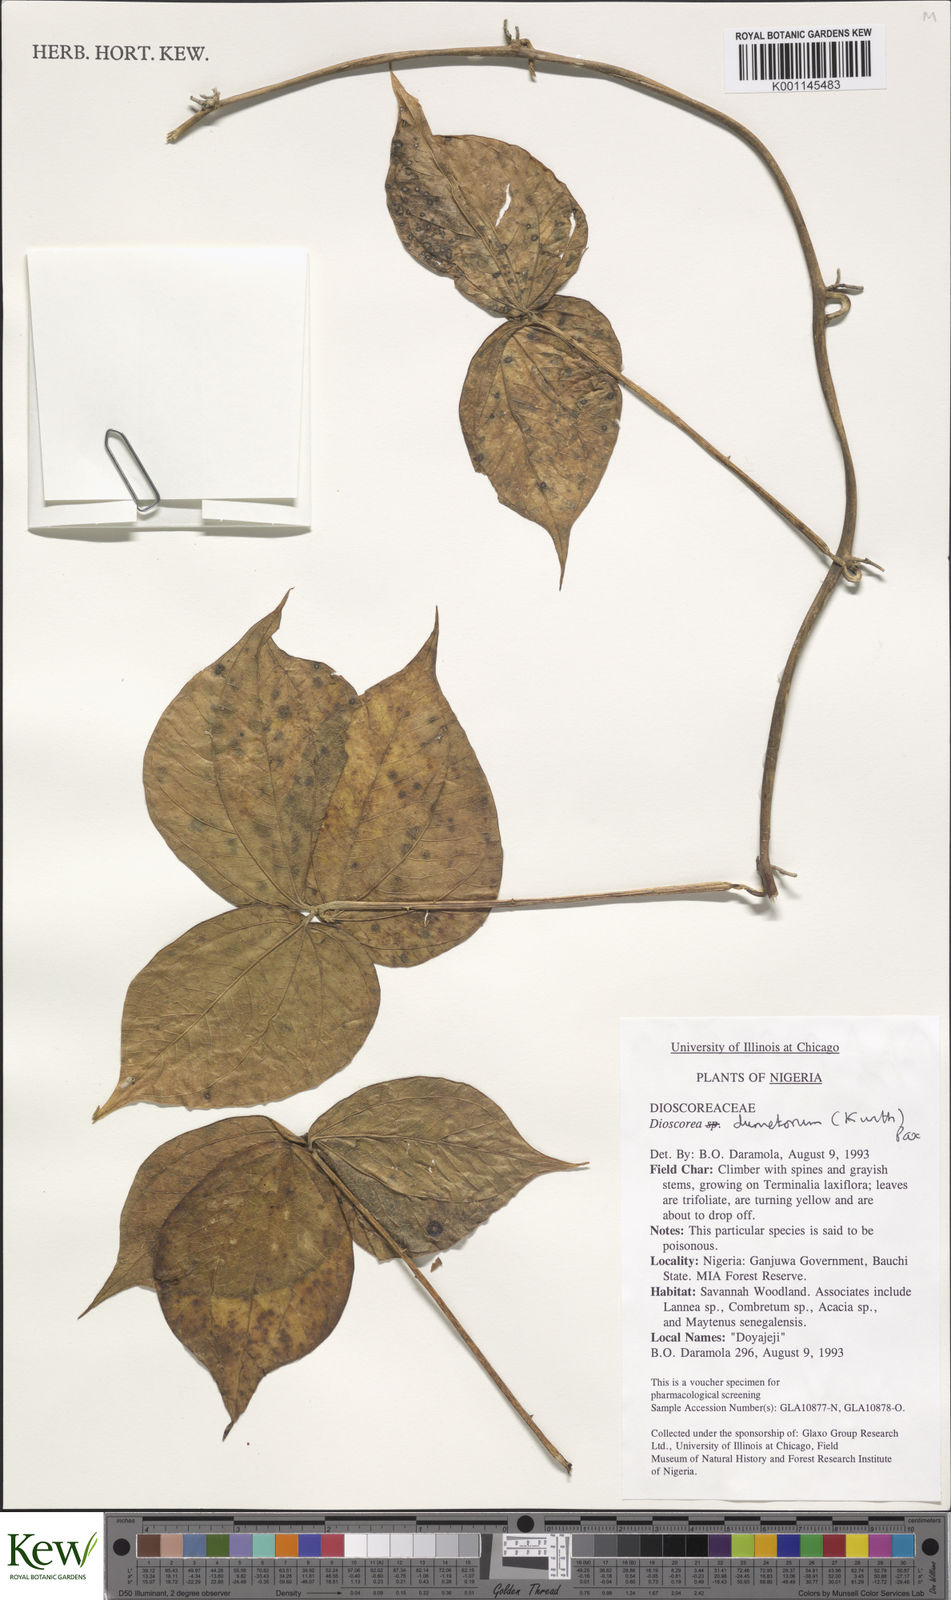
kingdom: Plantae
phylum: Tracheophyta
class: Liliopsida
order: Dioscoreales
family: Dioscoreaceae
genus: Dioscorea
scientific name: Dioscorea dumetorum
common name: African bitter yam
